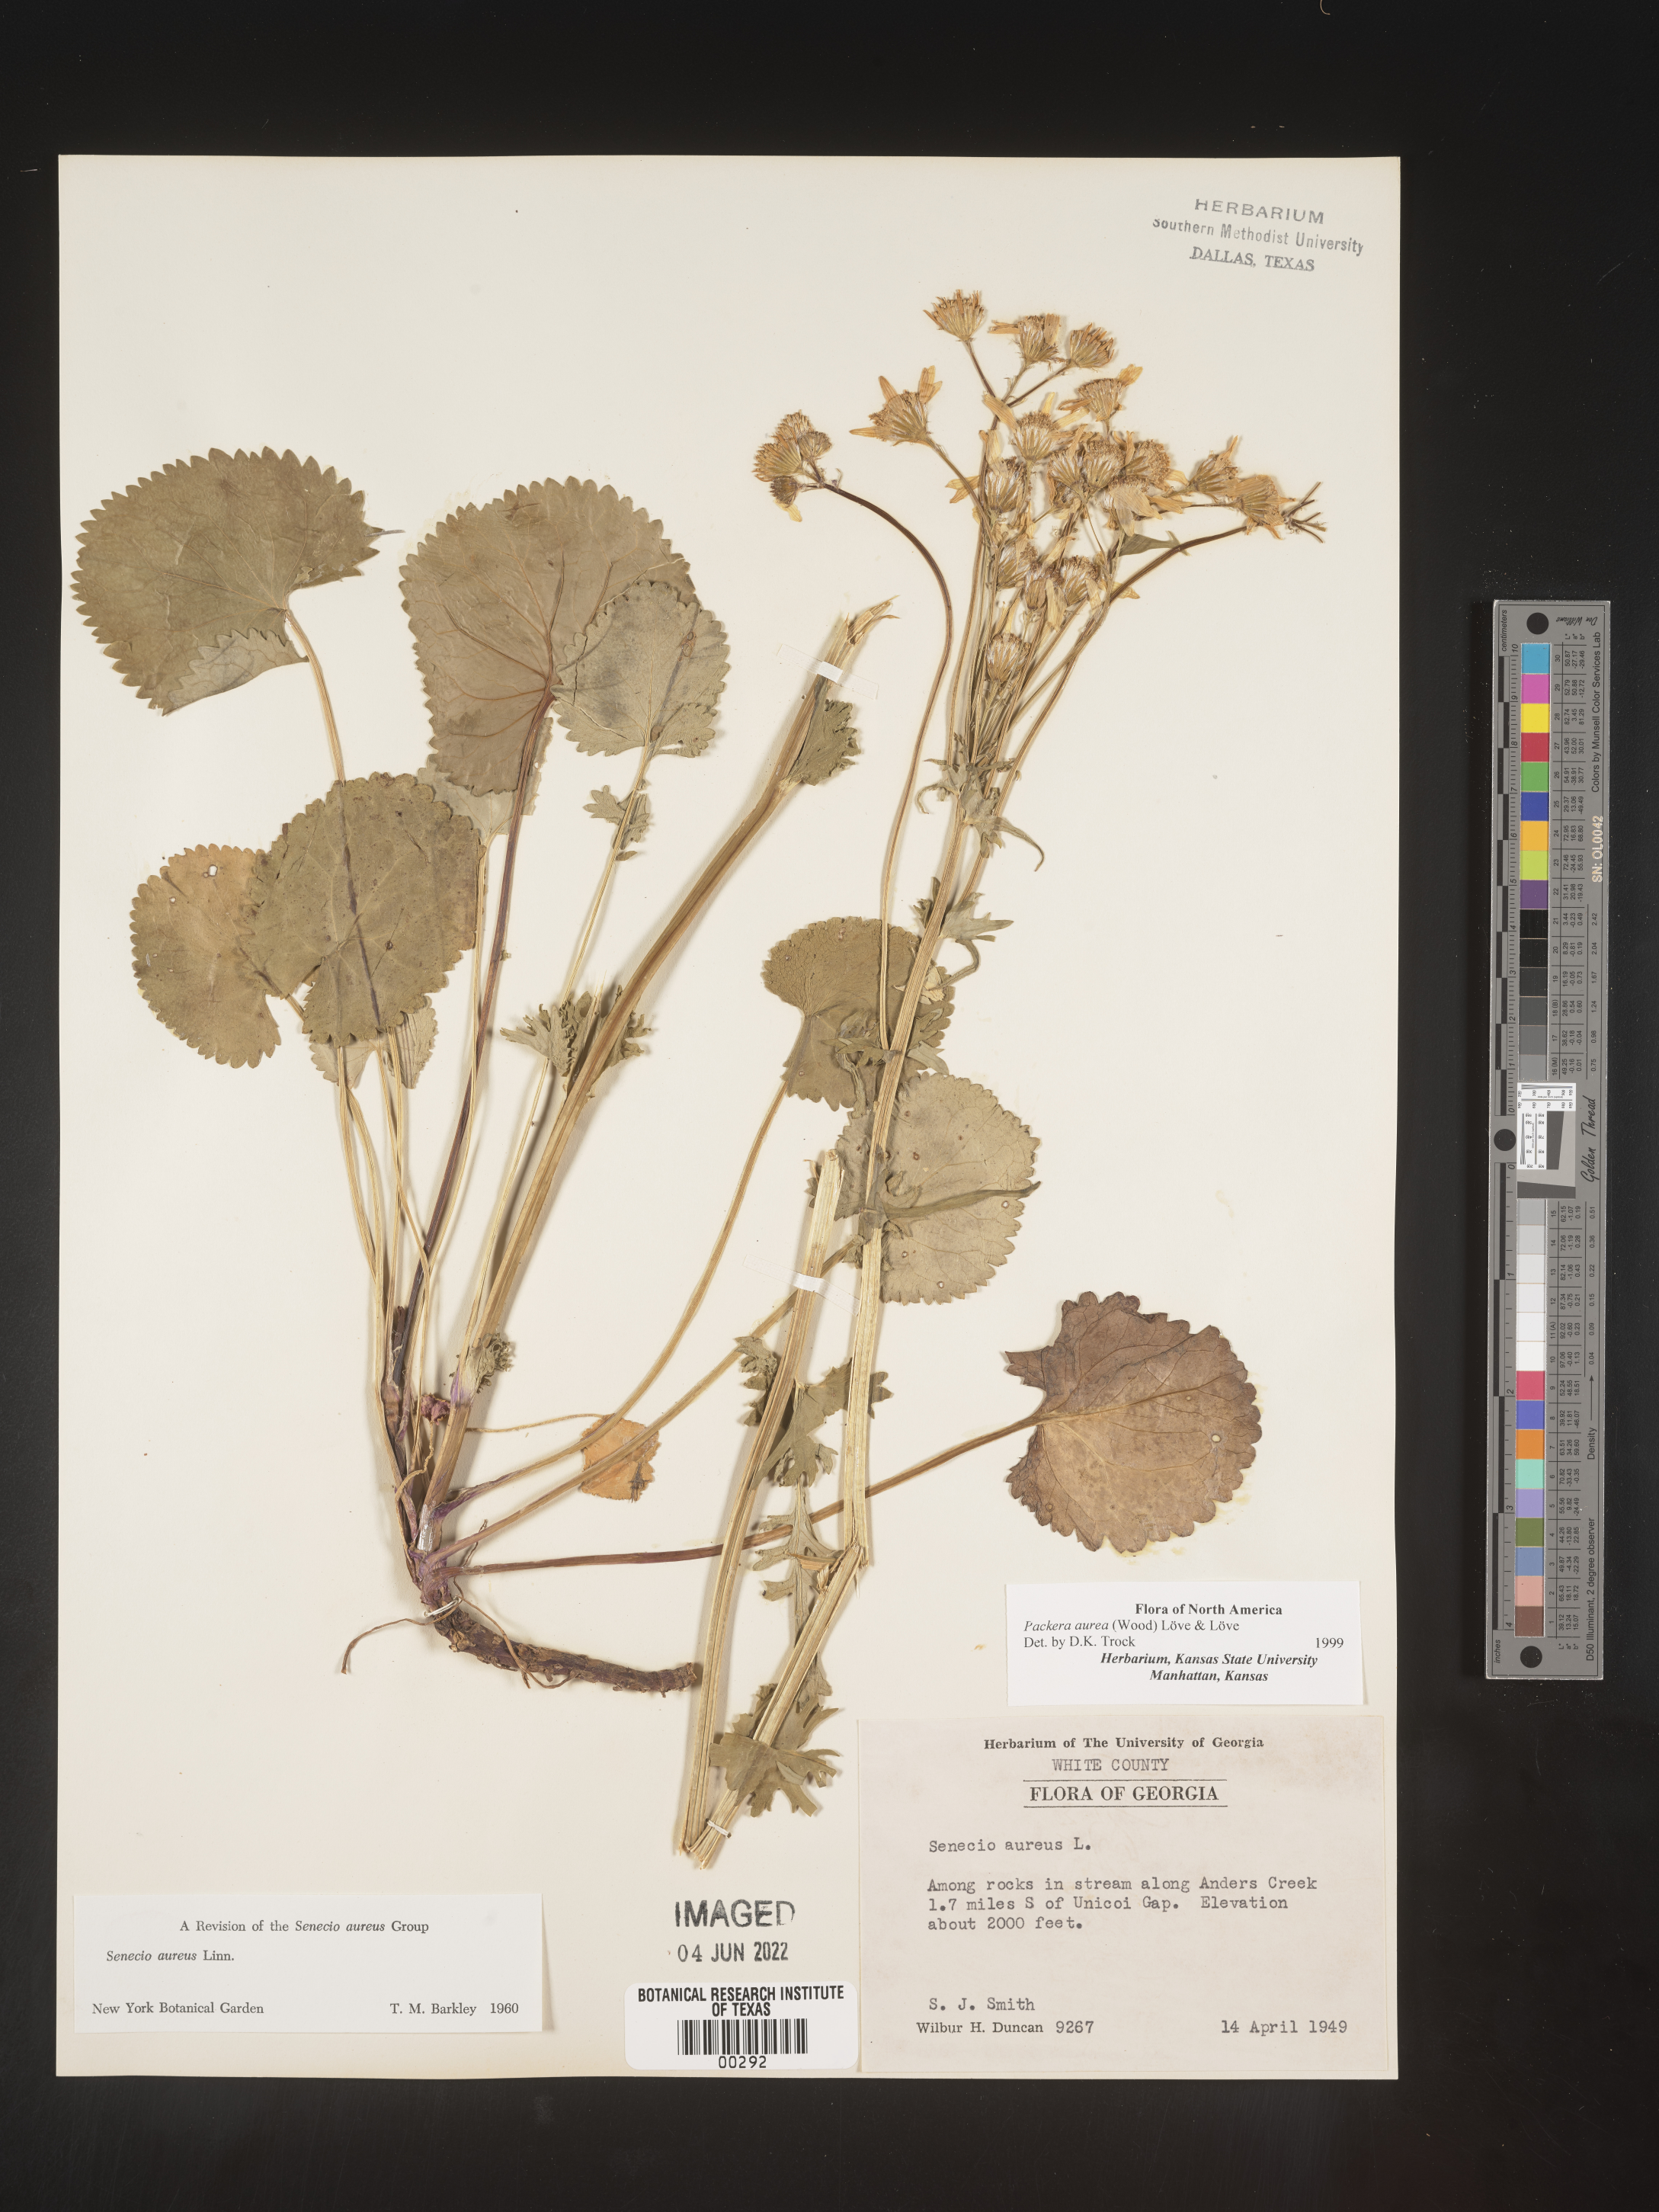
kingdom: Plantae
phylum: Tracheophyta
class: Magnoliopsida
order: Asterales
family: Asteraceae
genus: Packera
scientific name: Packera aurea
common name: Golden groundsel
